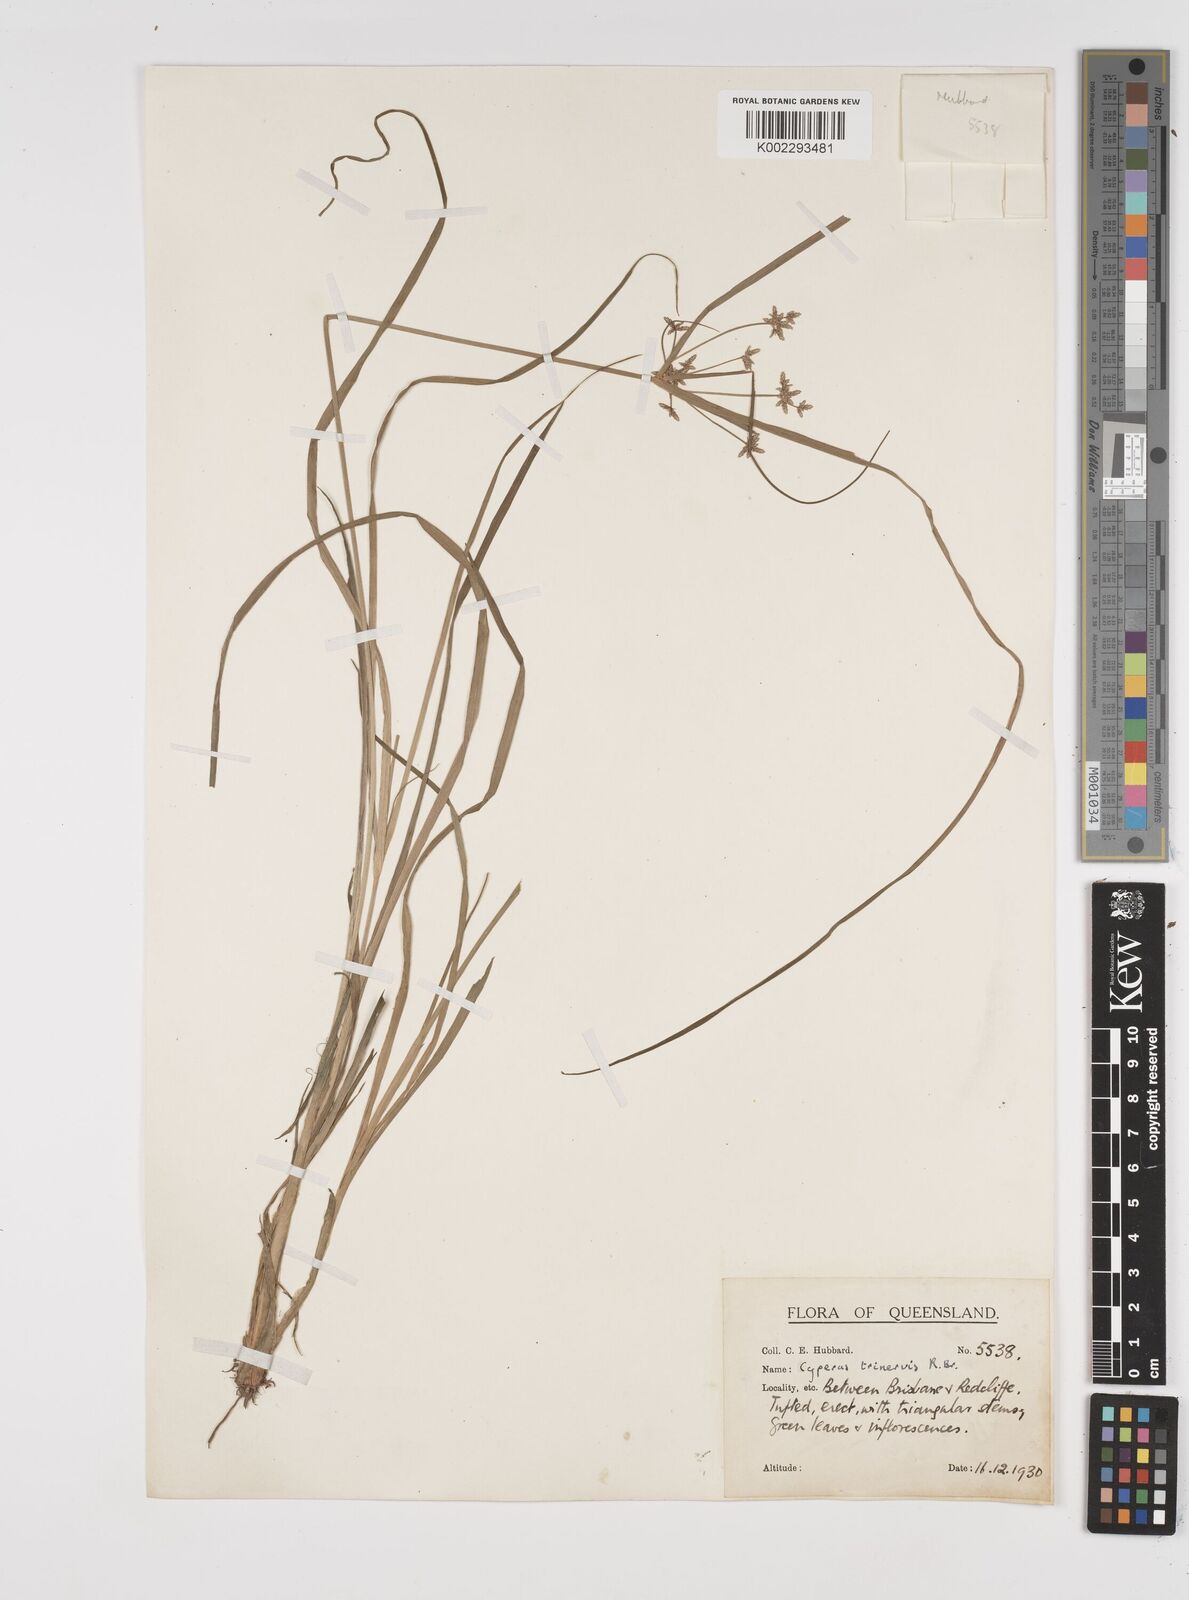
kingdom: Plantae
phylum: Tracheophyta
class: Liliopsida
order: Poales
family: Cyperaceae
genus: Cyperus
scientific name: Cyperus trinervis
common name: Australian flatsedge
